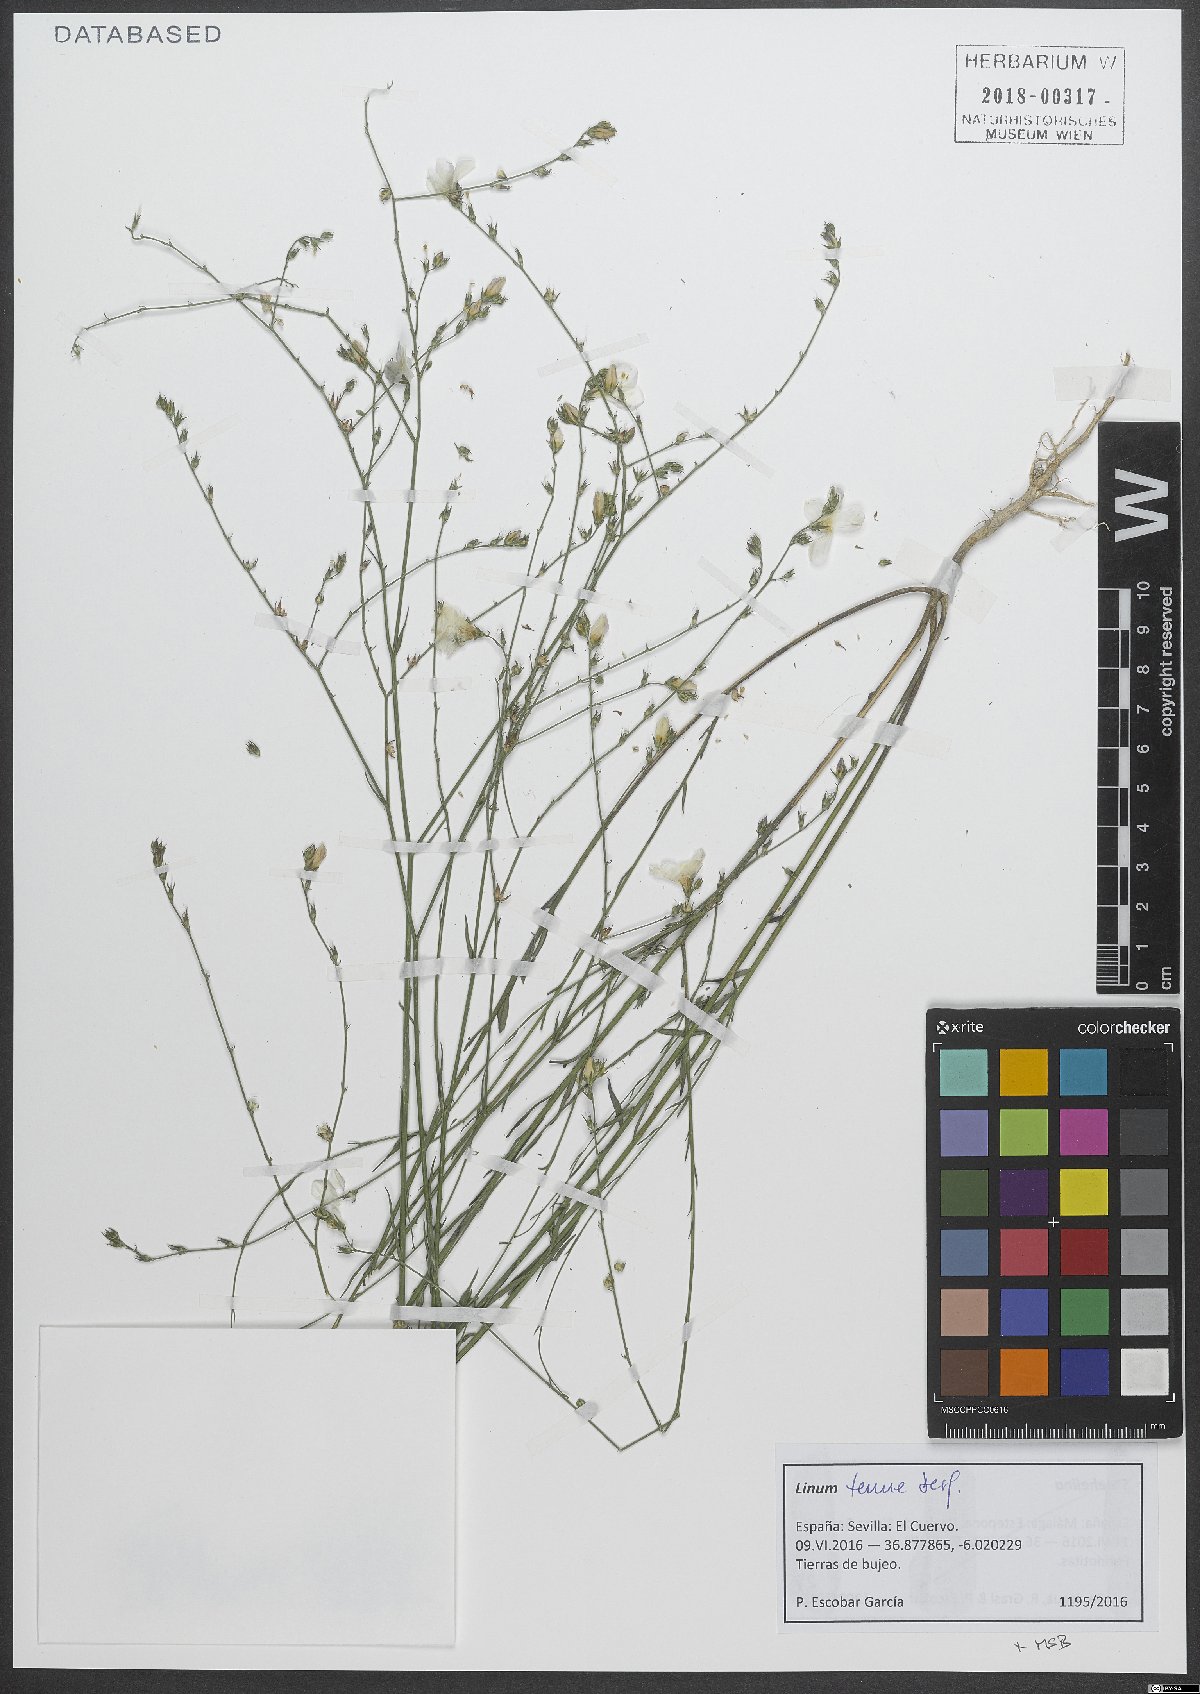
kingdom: Plantae
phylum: Tracheophyta
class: Magnoliopsida
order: Malpighiales
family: Linaceae
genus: Linum
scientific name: Linum tenue
